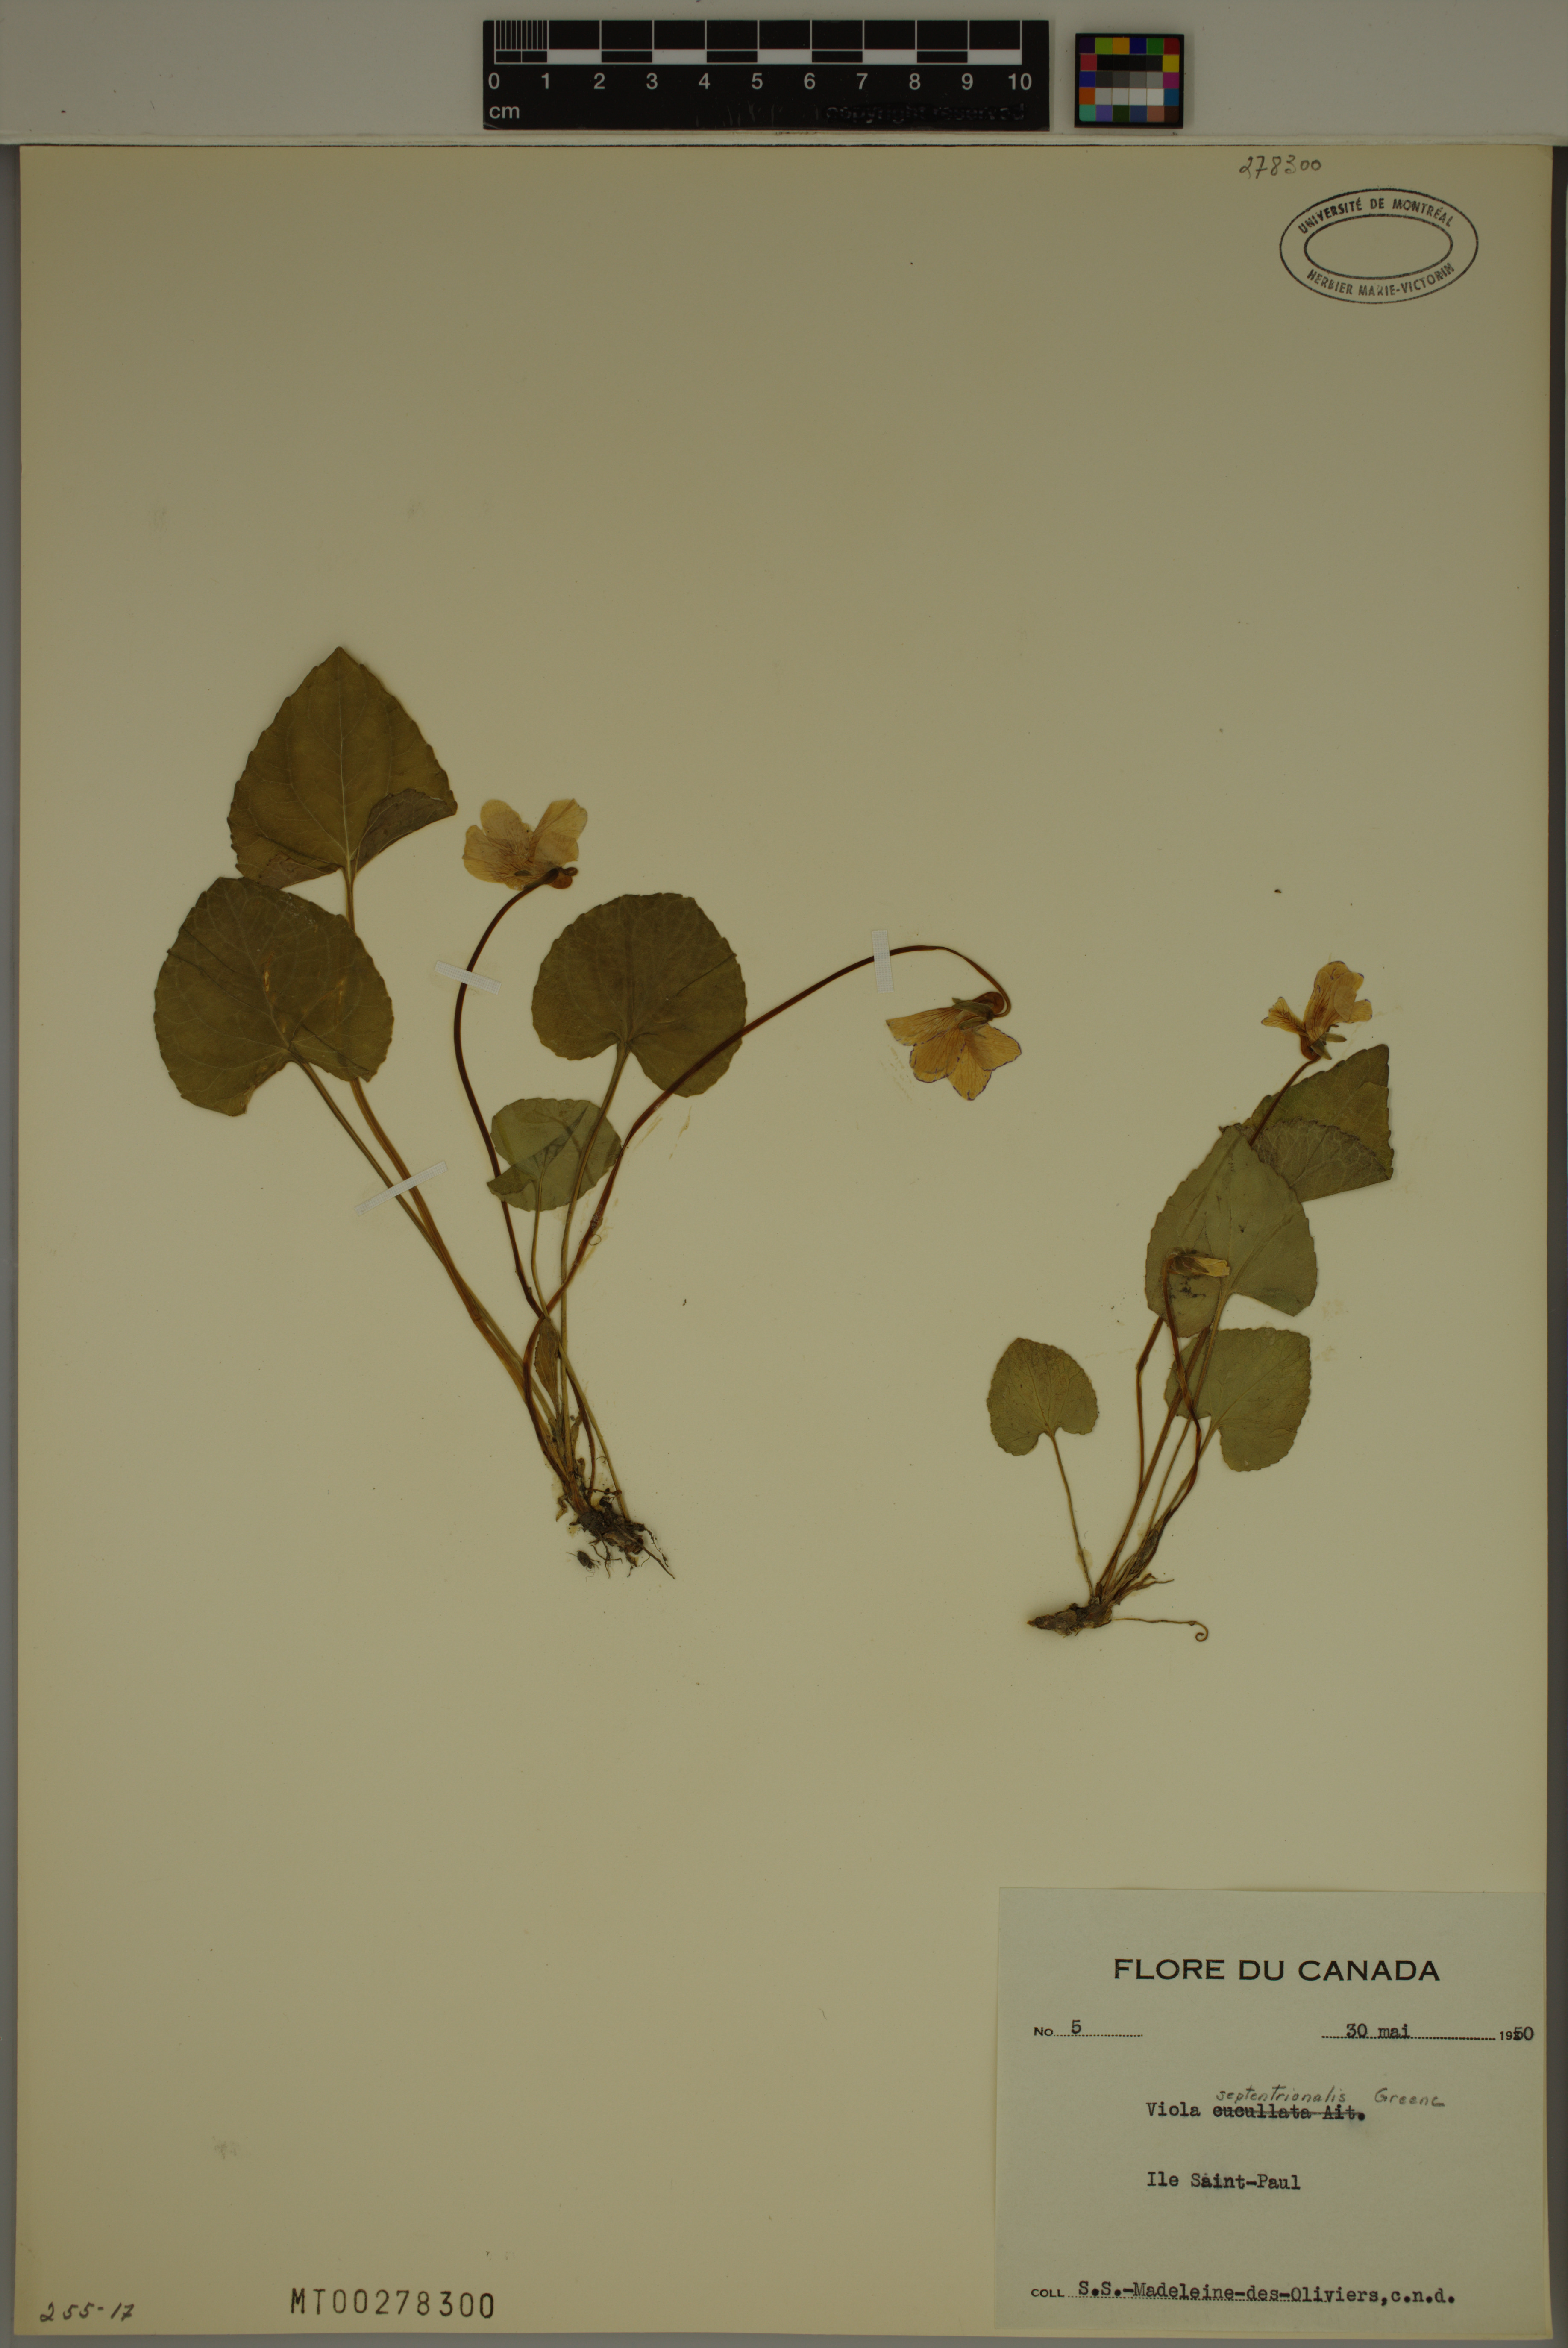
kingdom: Plantae
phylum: Tracheophyta
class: Magnoliopsida
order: Malpighiales
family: Violaceae
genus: Viola
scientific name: Viola septentrionalis
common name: Northern woodland violet
